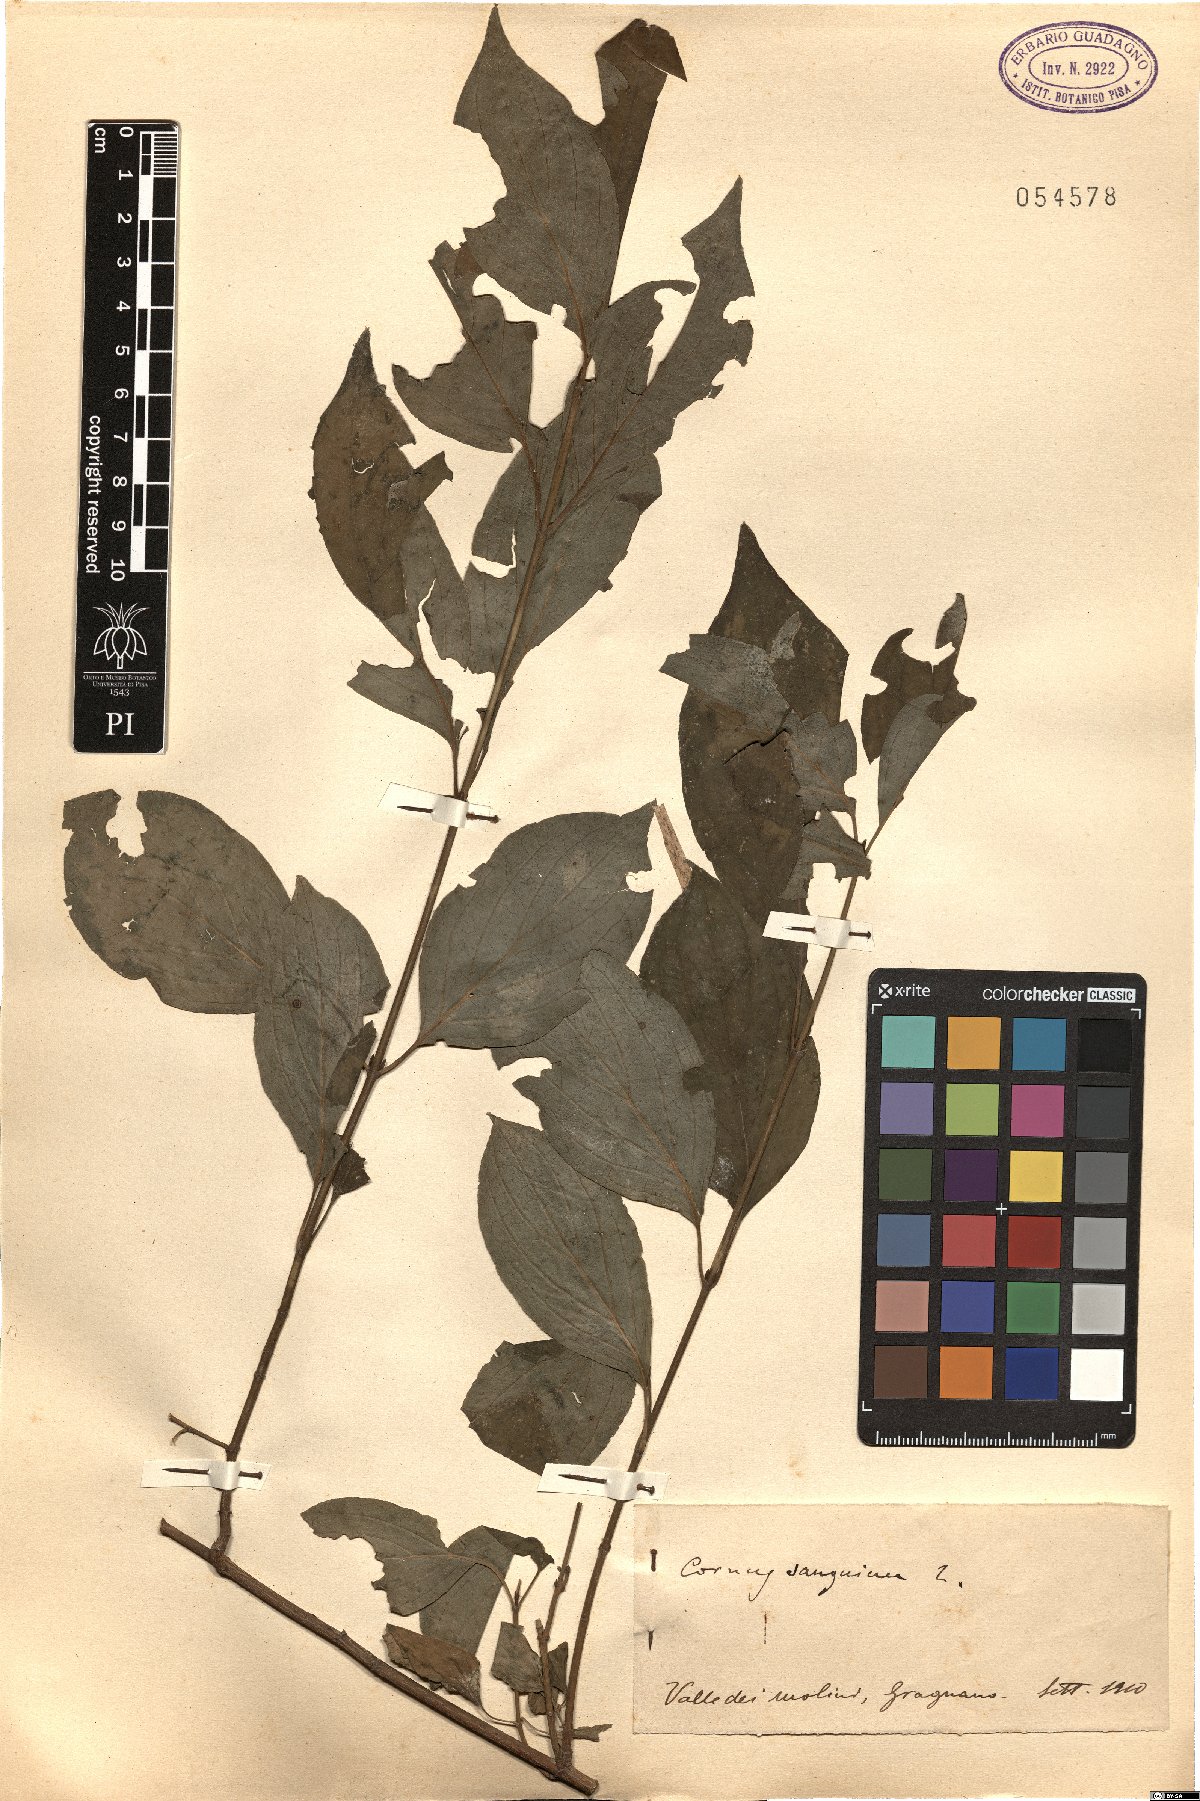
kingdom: Plantae
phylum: Tracheophyta
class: Magnoliopsida
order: Cornales
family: Cornaceae
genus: Cornus
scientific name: Cornus sanguinea
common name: Dogwood
